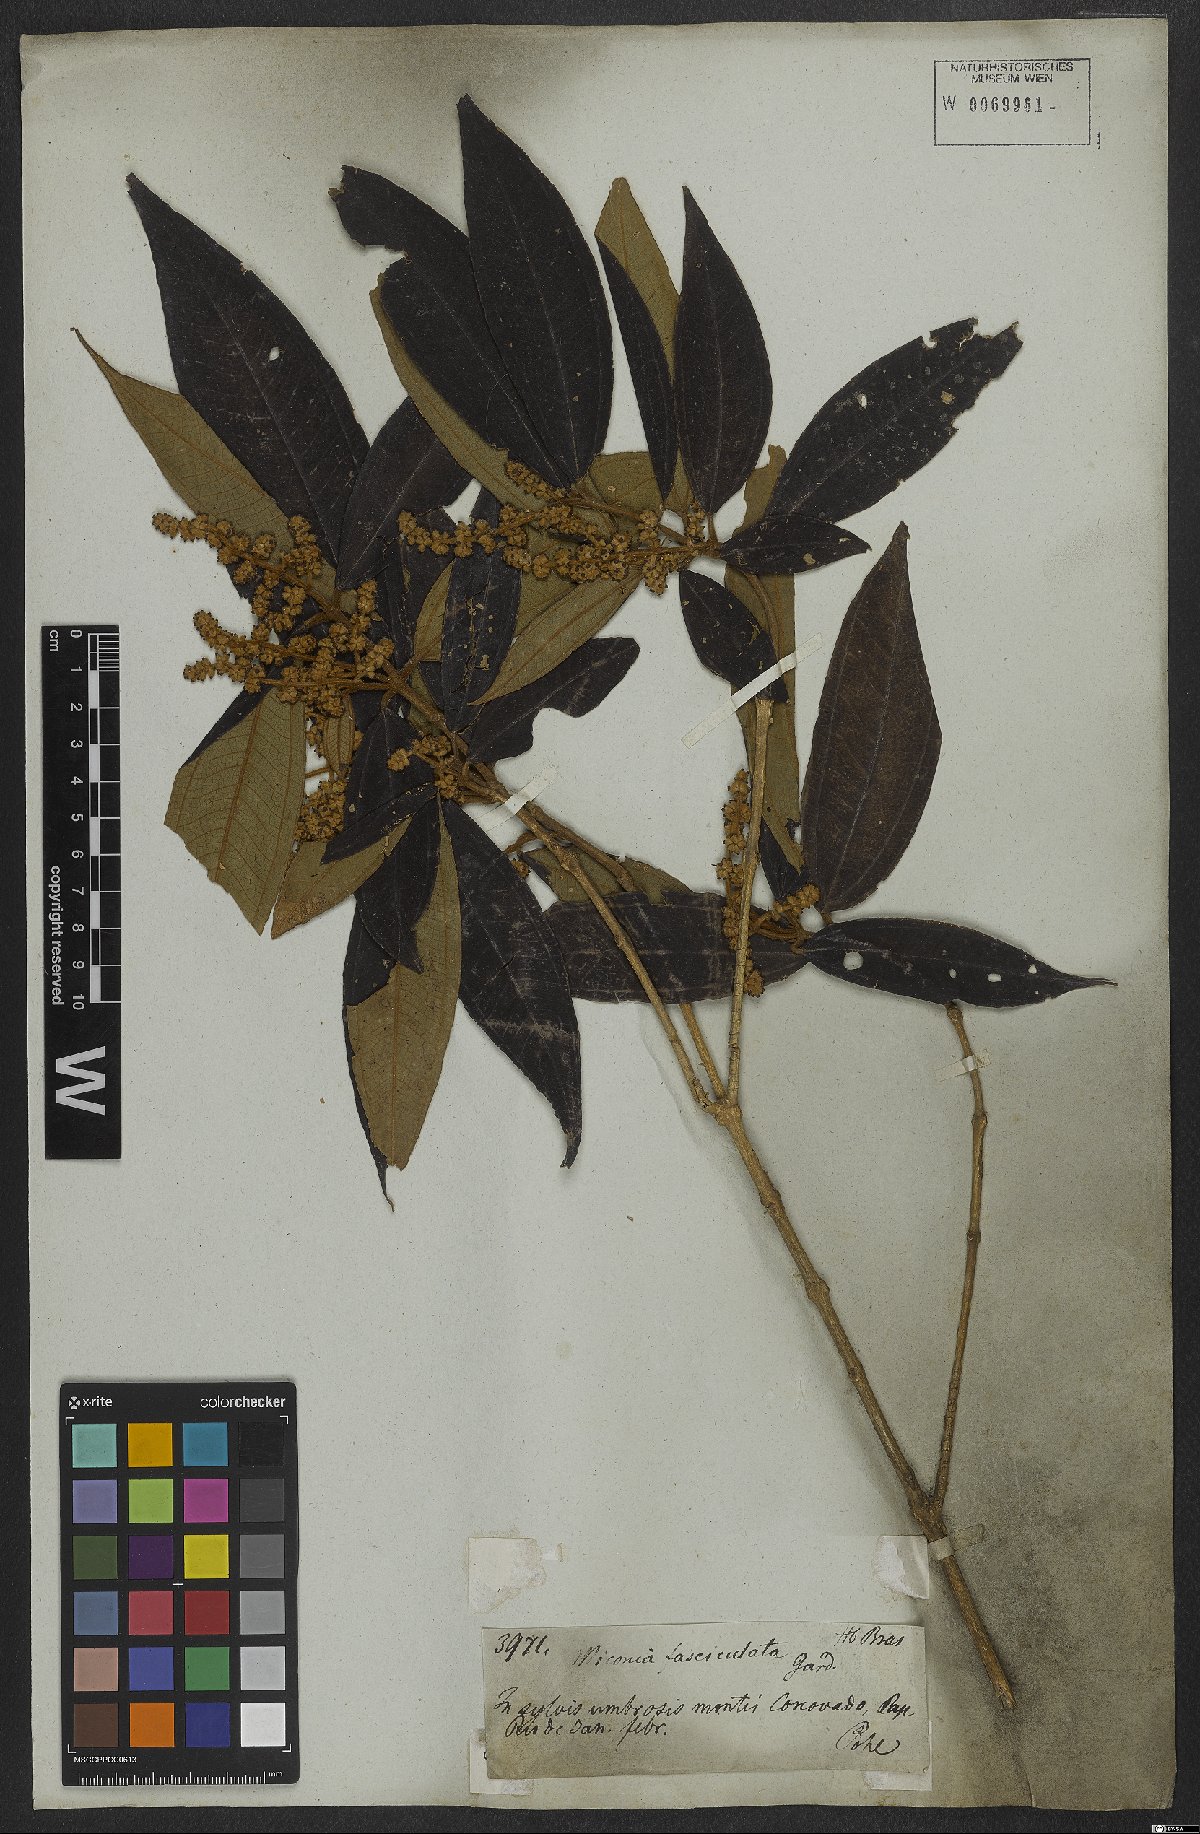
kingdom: Plantae
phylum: Tracheophyta
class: Magnoliopsida
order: Myrtales
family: Melastomataceae
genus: Miconia
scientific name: Miconia fasciculata
